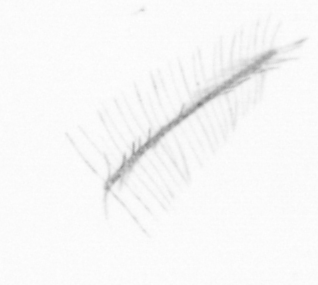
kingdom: Chromista
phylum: Ochrophyta
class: Bacillariophyceae
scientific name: Bacillariophyceae
